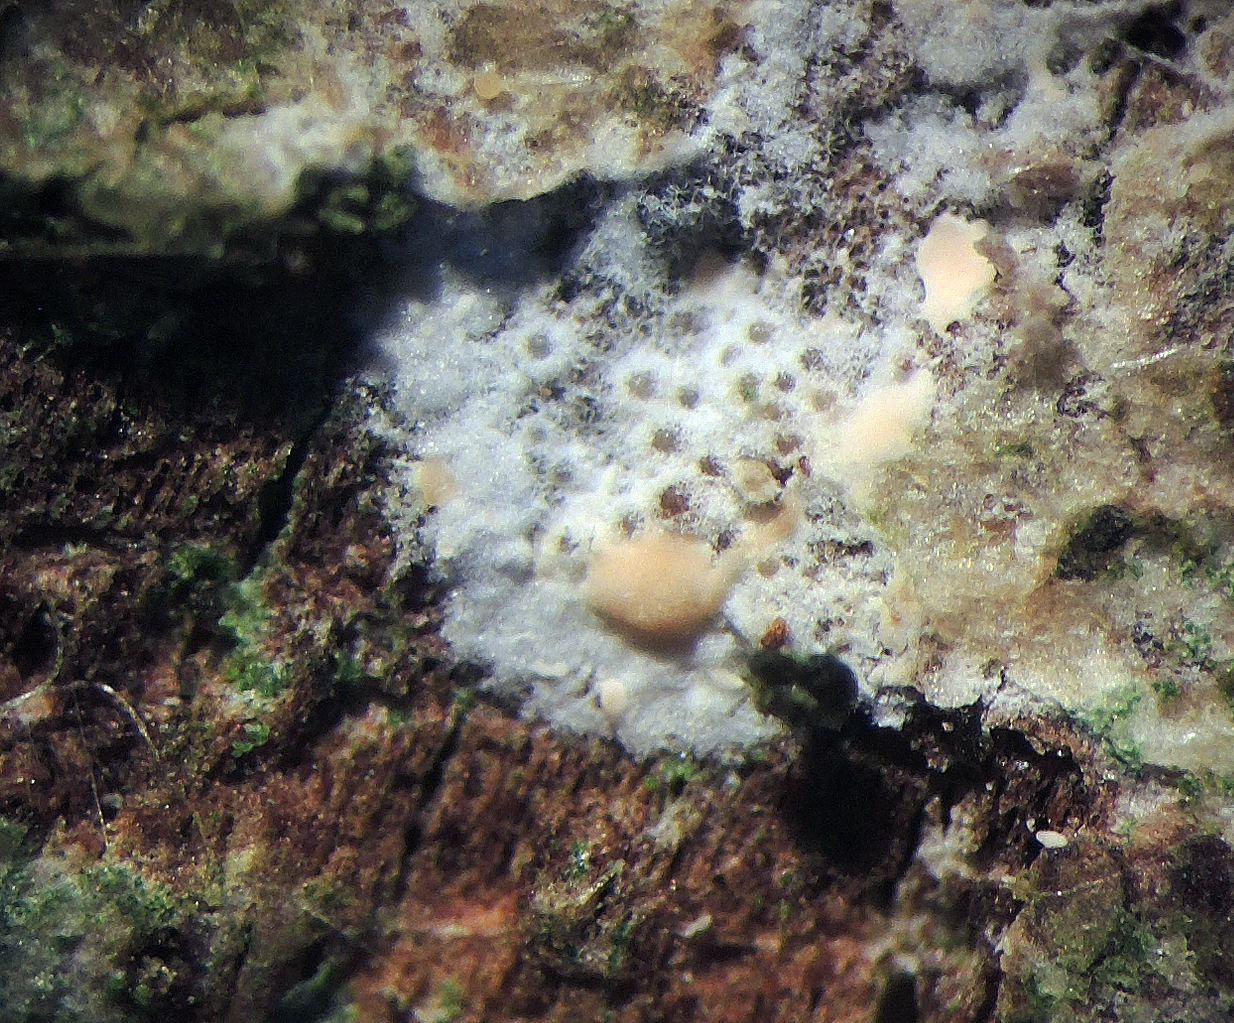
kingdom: Fungi
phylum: Ascomycota
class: Sordariomycetes
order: Hypocreales
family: Bionectriaceae
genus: Nectriopsis
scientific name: Nectriopsis oropensoides
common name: mørkøjet snyltespind
